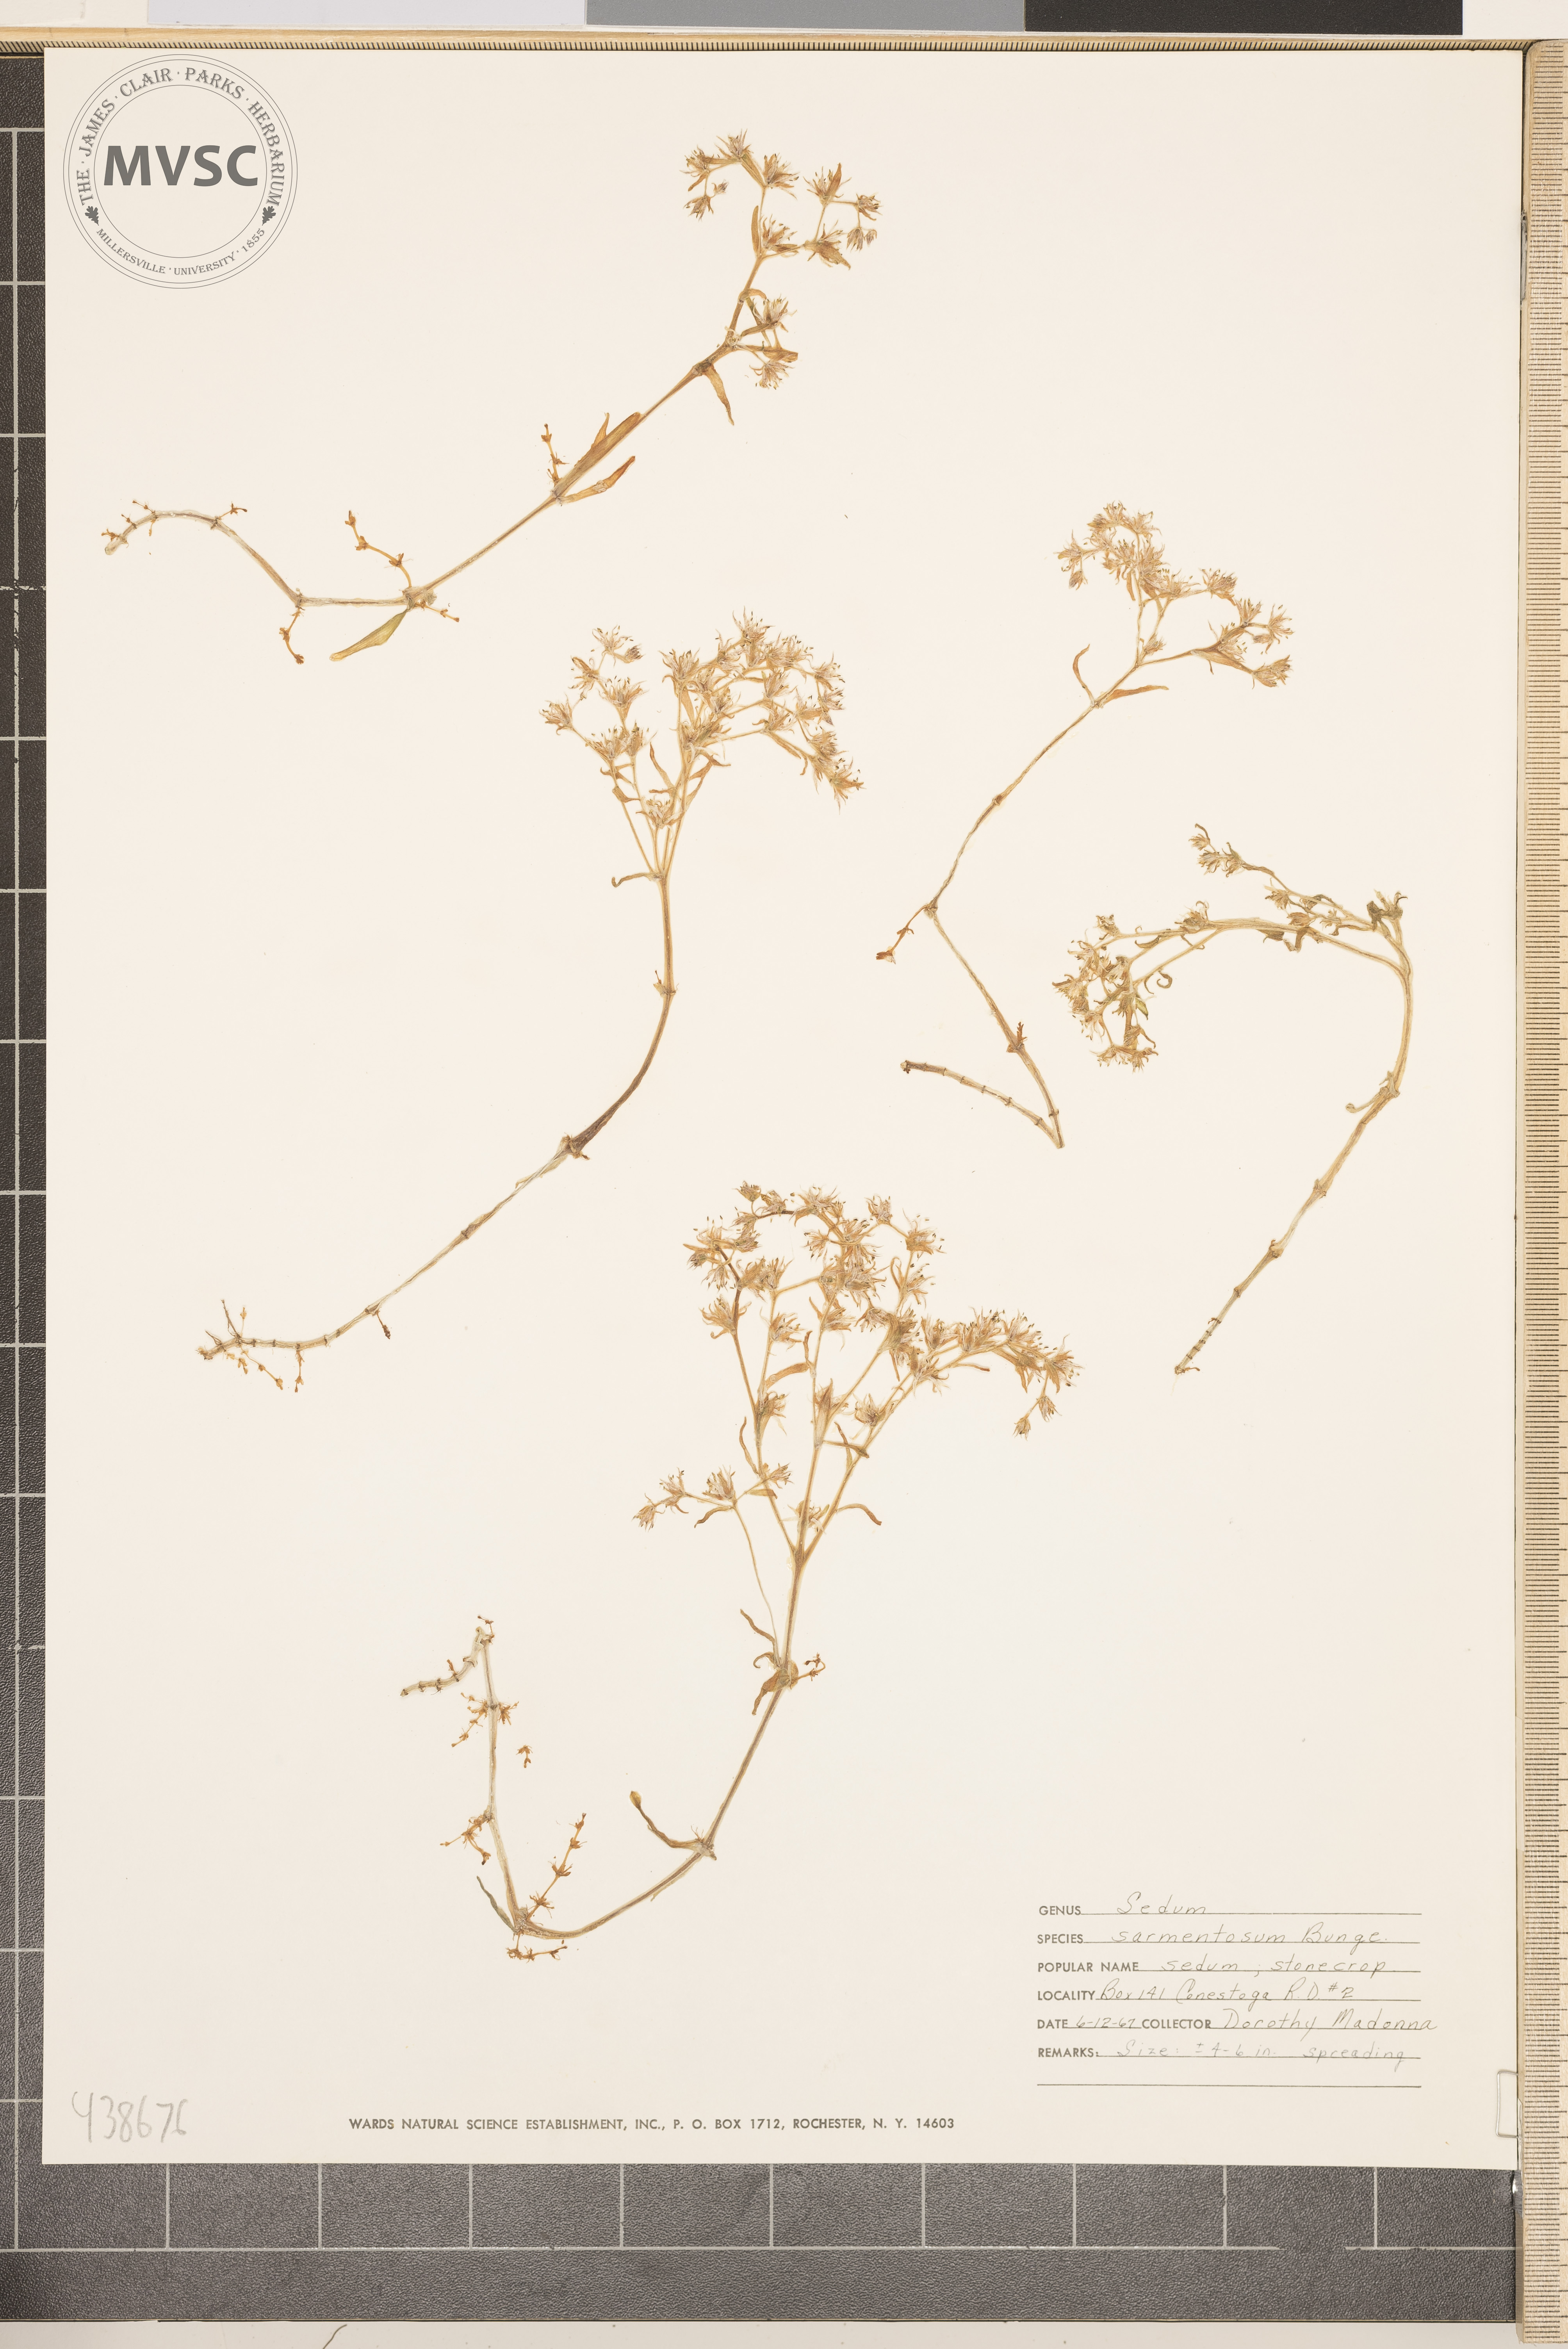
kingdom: Plantae
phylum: Tracheophyta
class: Magnoliopsida
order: Saxifragales
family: Crassulaceae
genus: Sedum
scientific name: Sedum sarmentosum
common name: Stringy stonecrop
